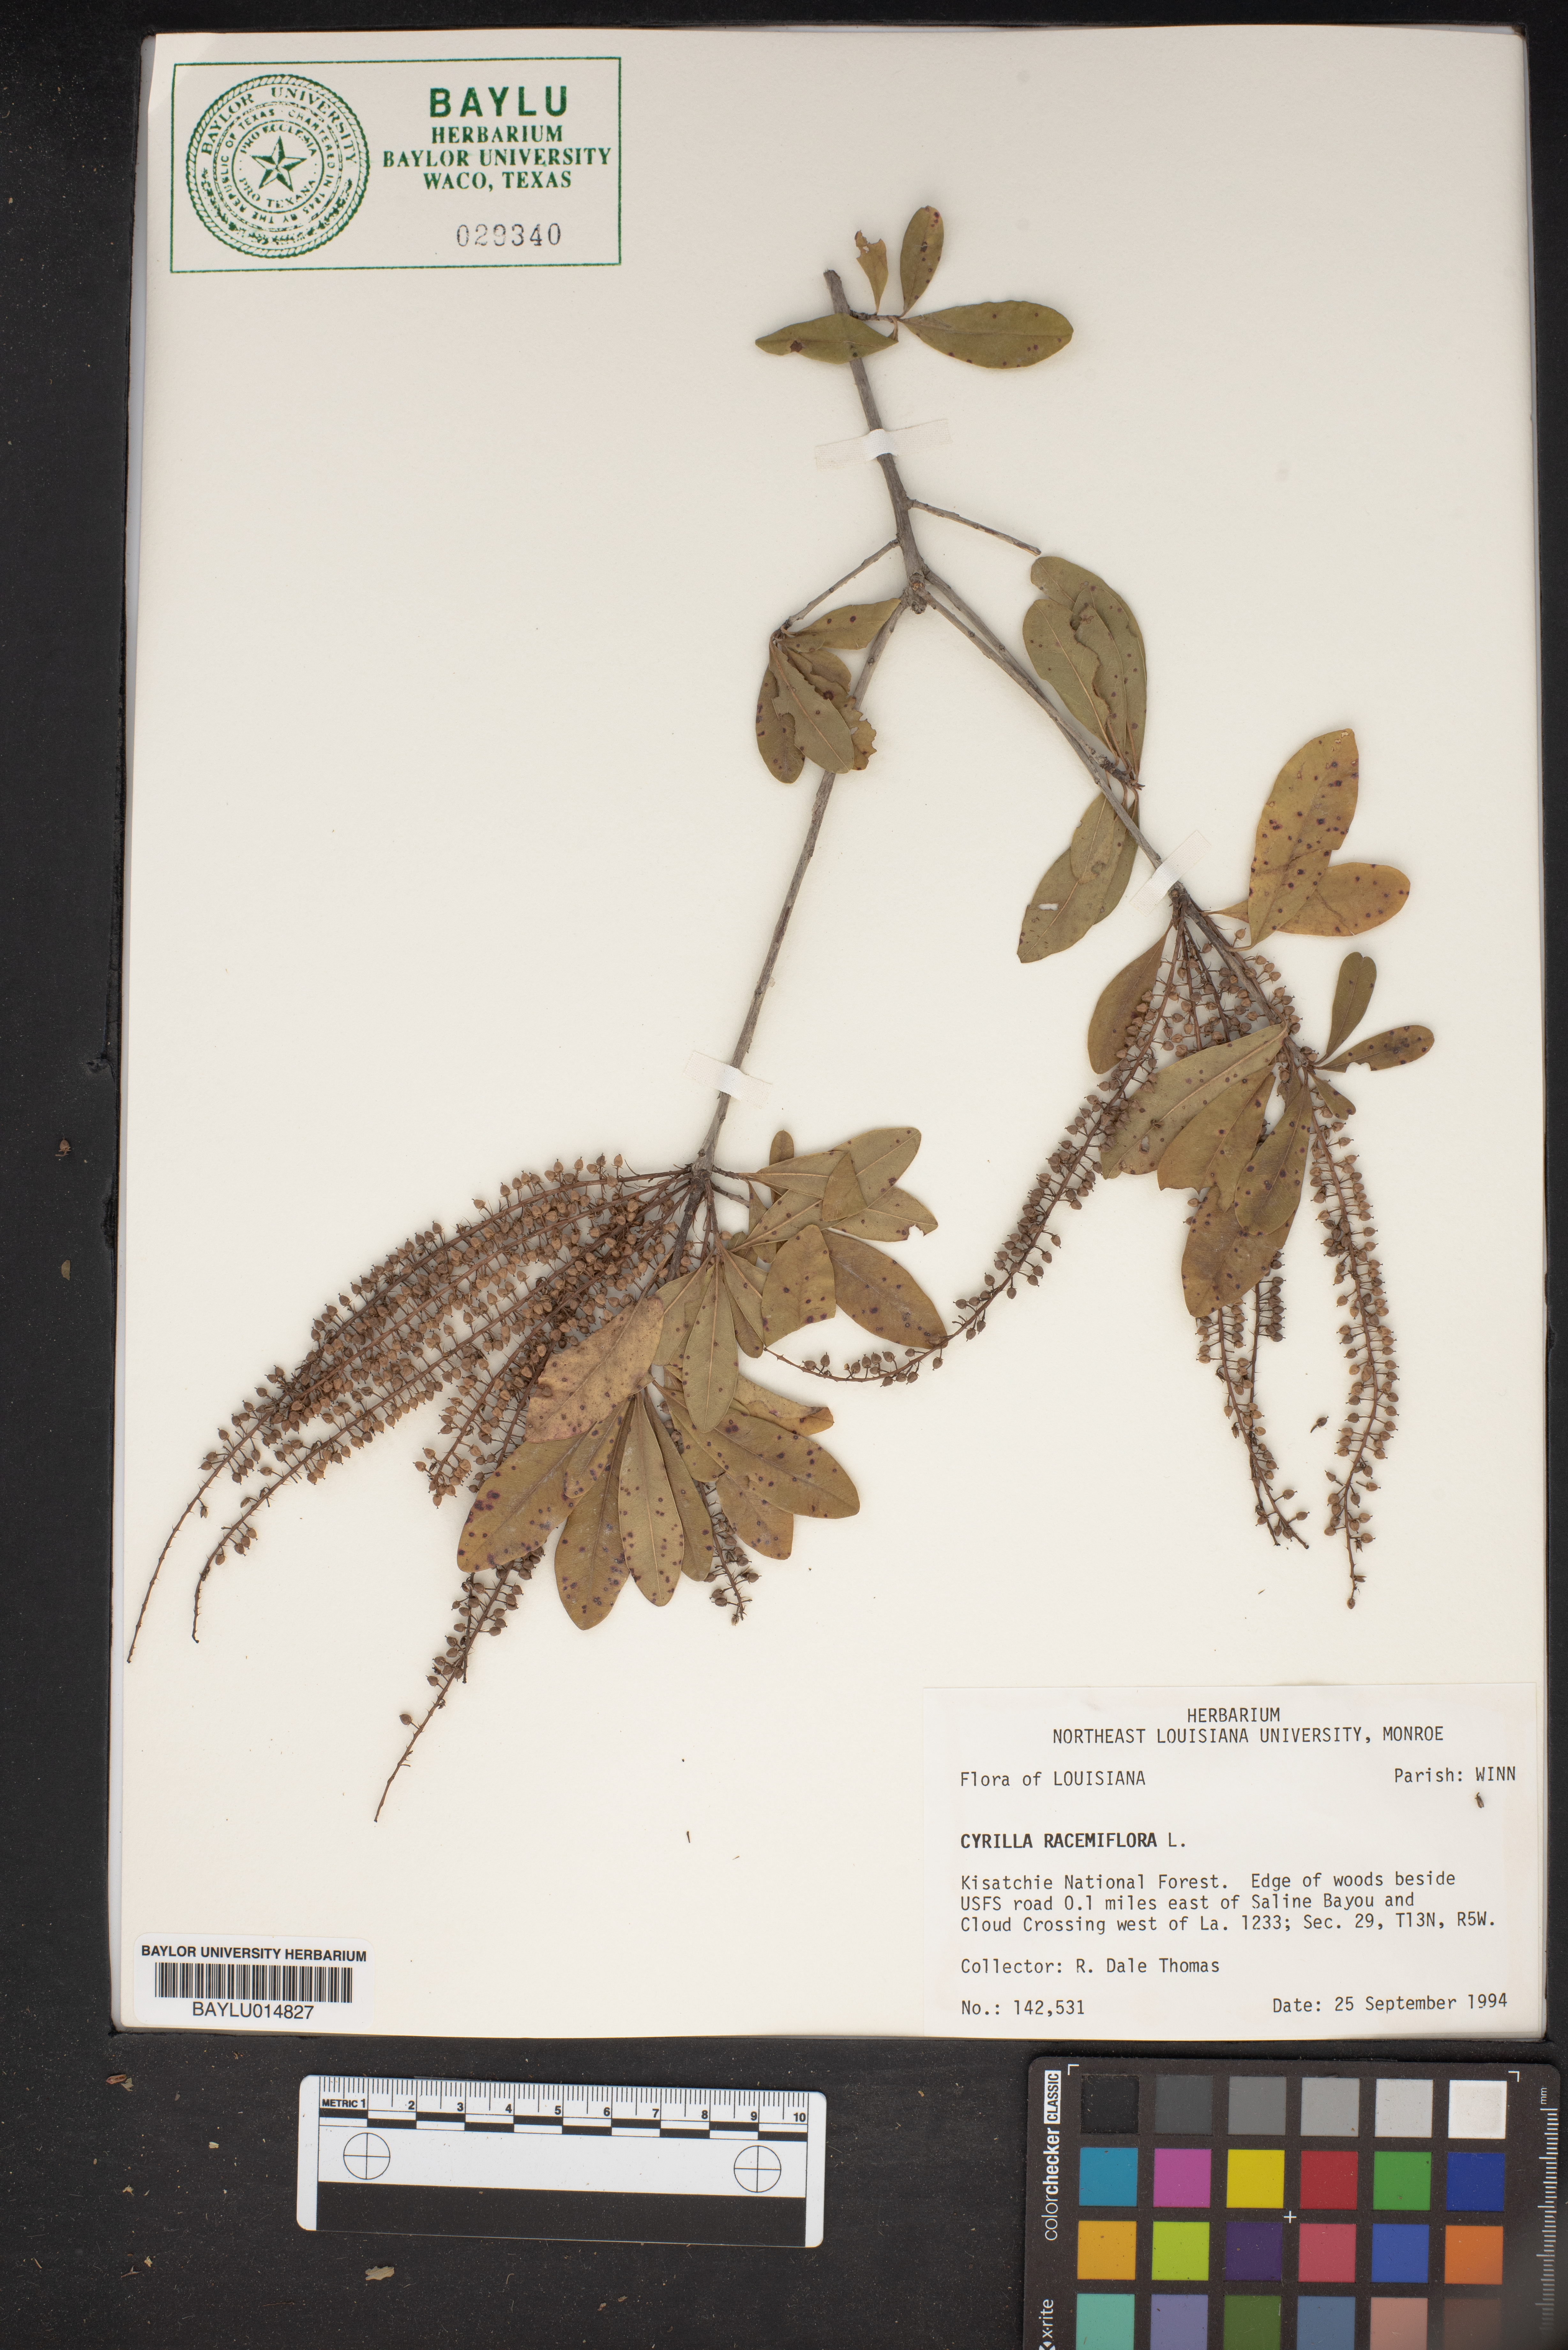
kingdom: Plantae
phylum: Tracheophyta
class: Magnoliopsida
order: Ericales
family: Cyrillaceae
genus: Cyrilla
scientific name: Cyrilla racemiflora
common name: Black titi
